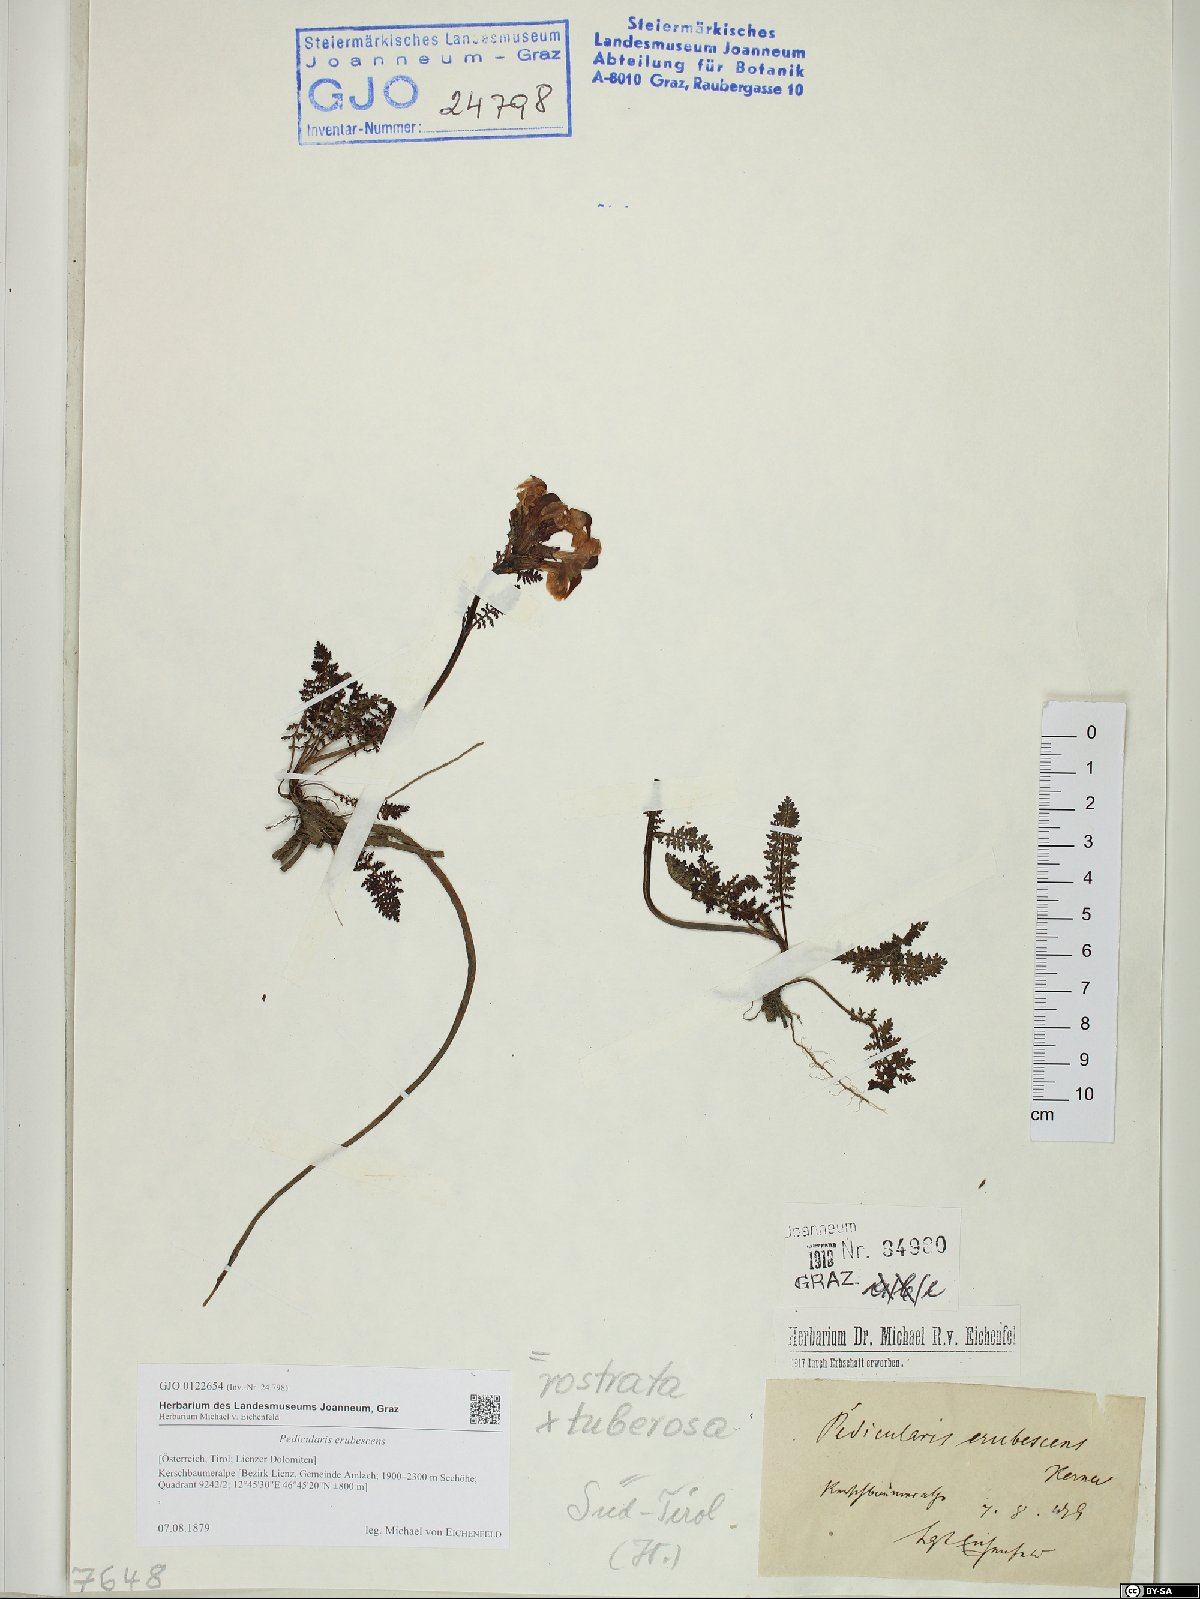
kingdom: Plantae
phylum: Tracheophyta
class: Magnoliopsida
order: Lamiales
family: Scrophulariaceae
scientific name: Scrophulariaceae
